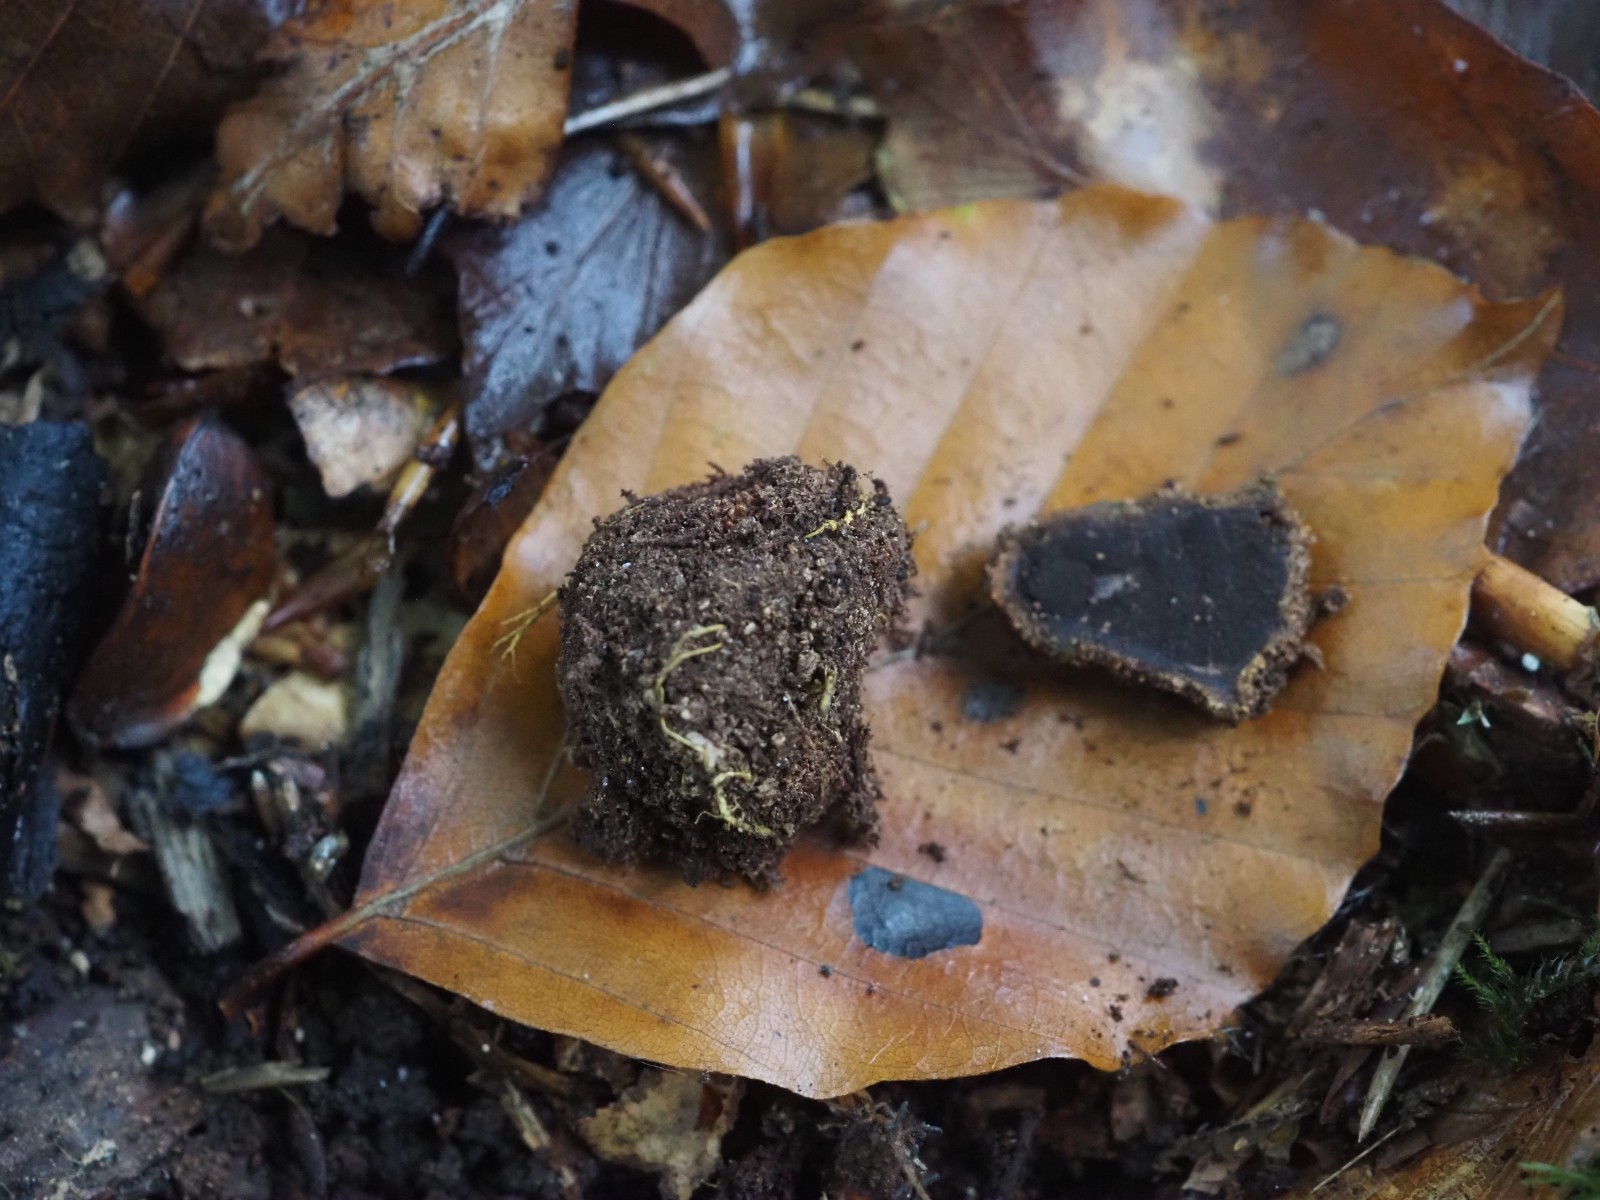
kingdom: Fungi
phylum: Ascomycota
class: Eurotiomycetes
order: Eurotiales
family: Elaphomycetaceae
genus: Elaphomyces
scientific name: Elaphomyces muricatus
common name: vortet hjortetrøffel
